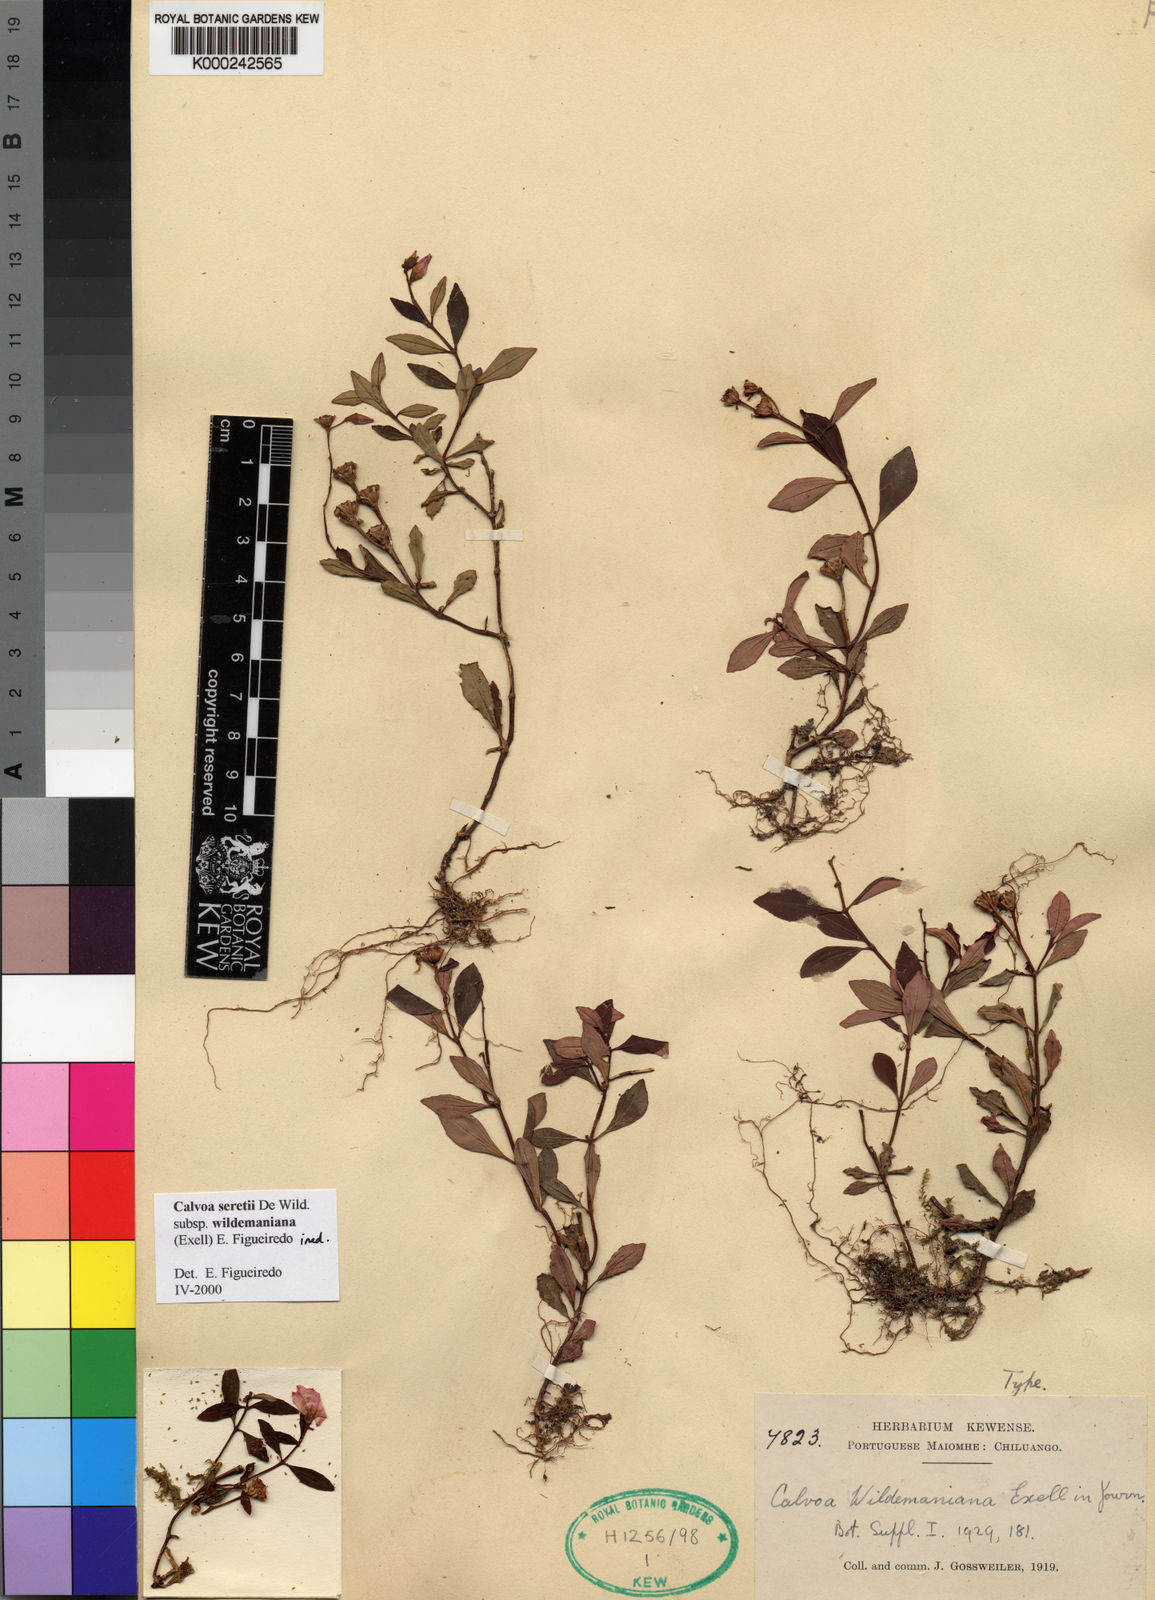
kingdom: Plantae
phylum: Tracheophyta
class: Magnoliopsida
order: Myrtales
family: Melastomataceae
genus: Calvoa
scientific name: Calvoa seretii
